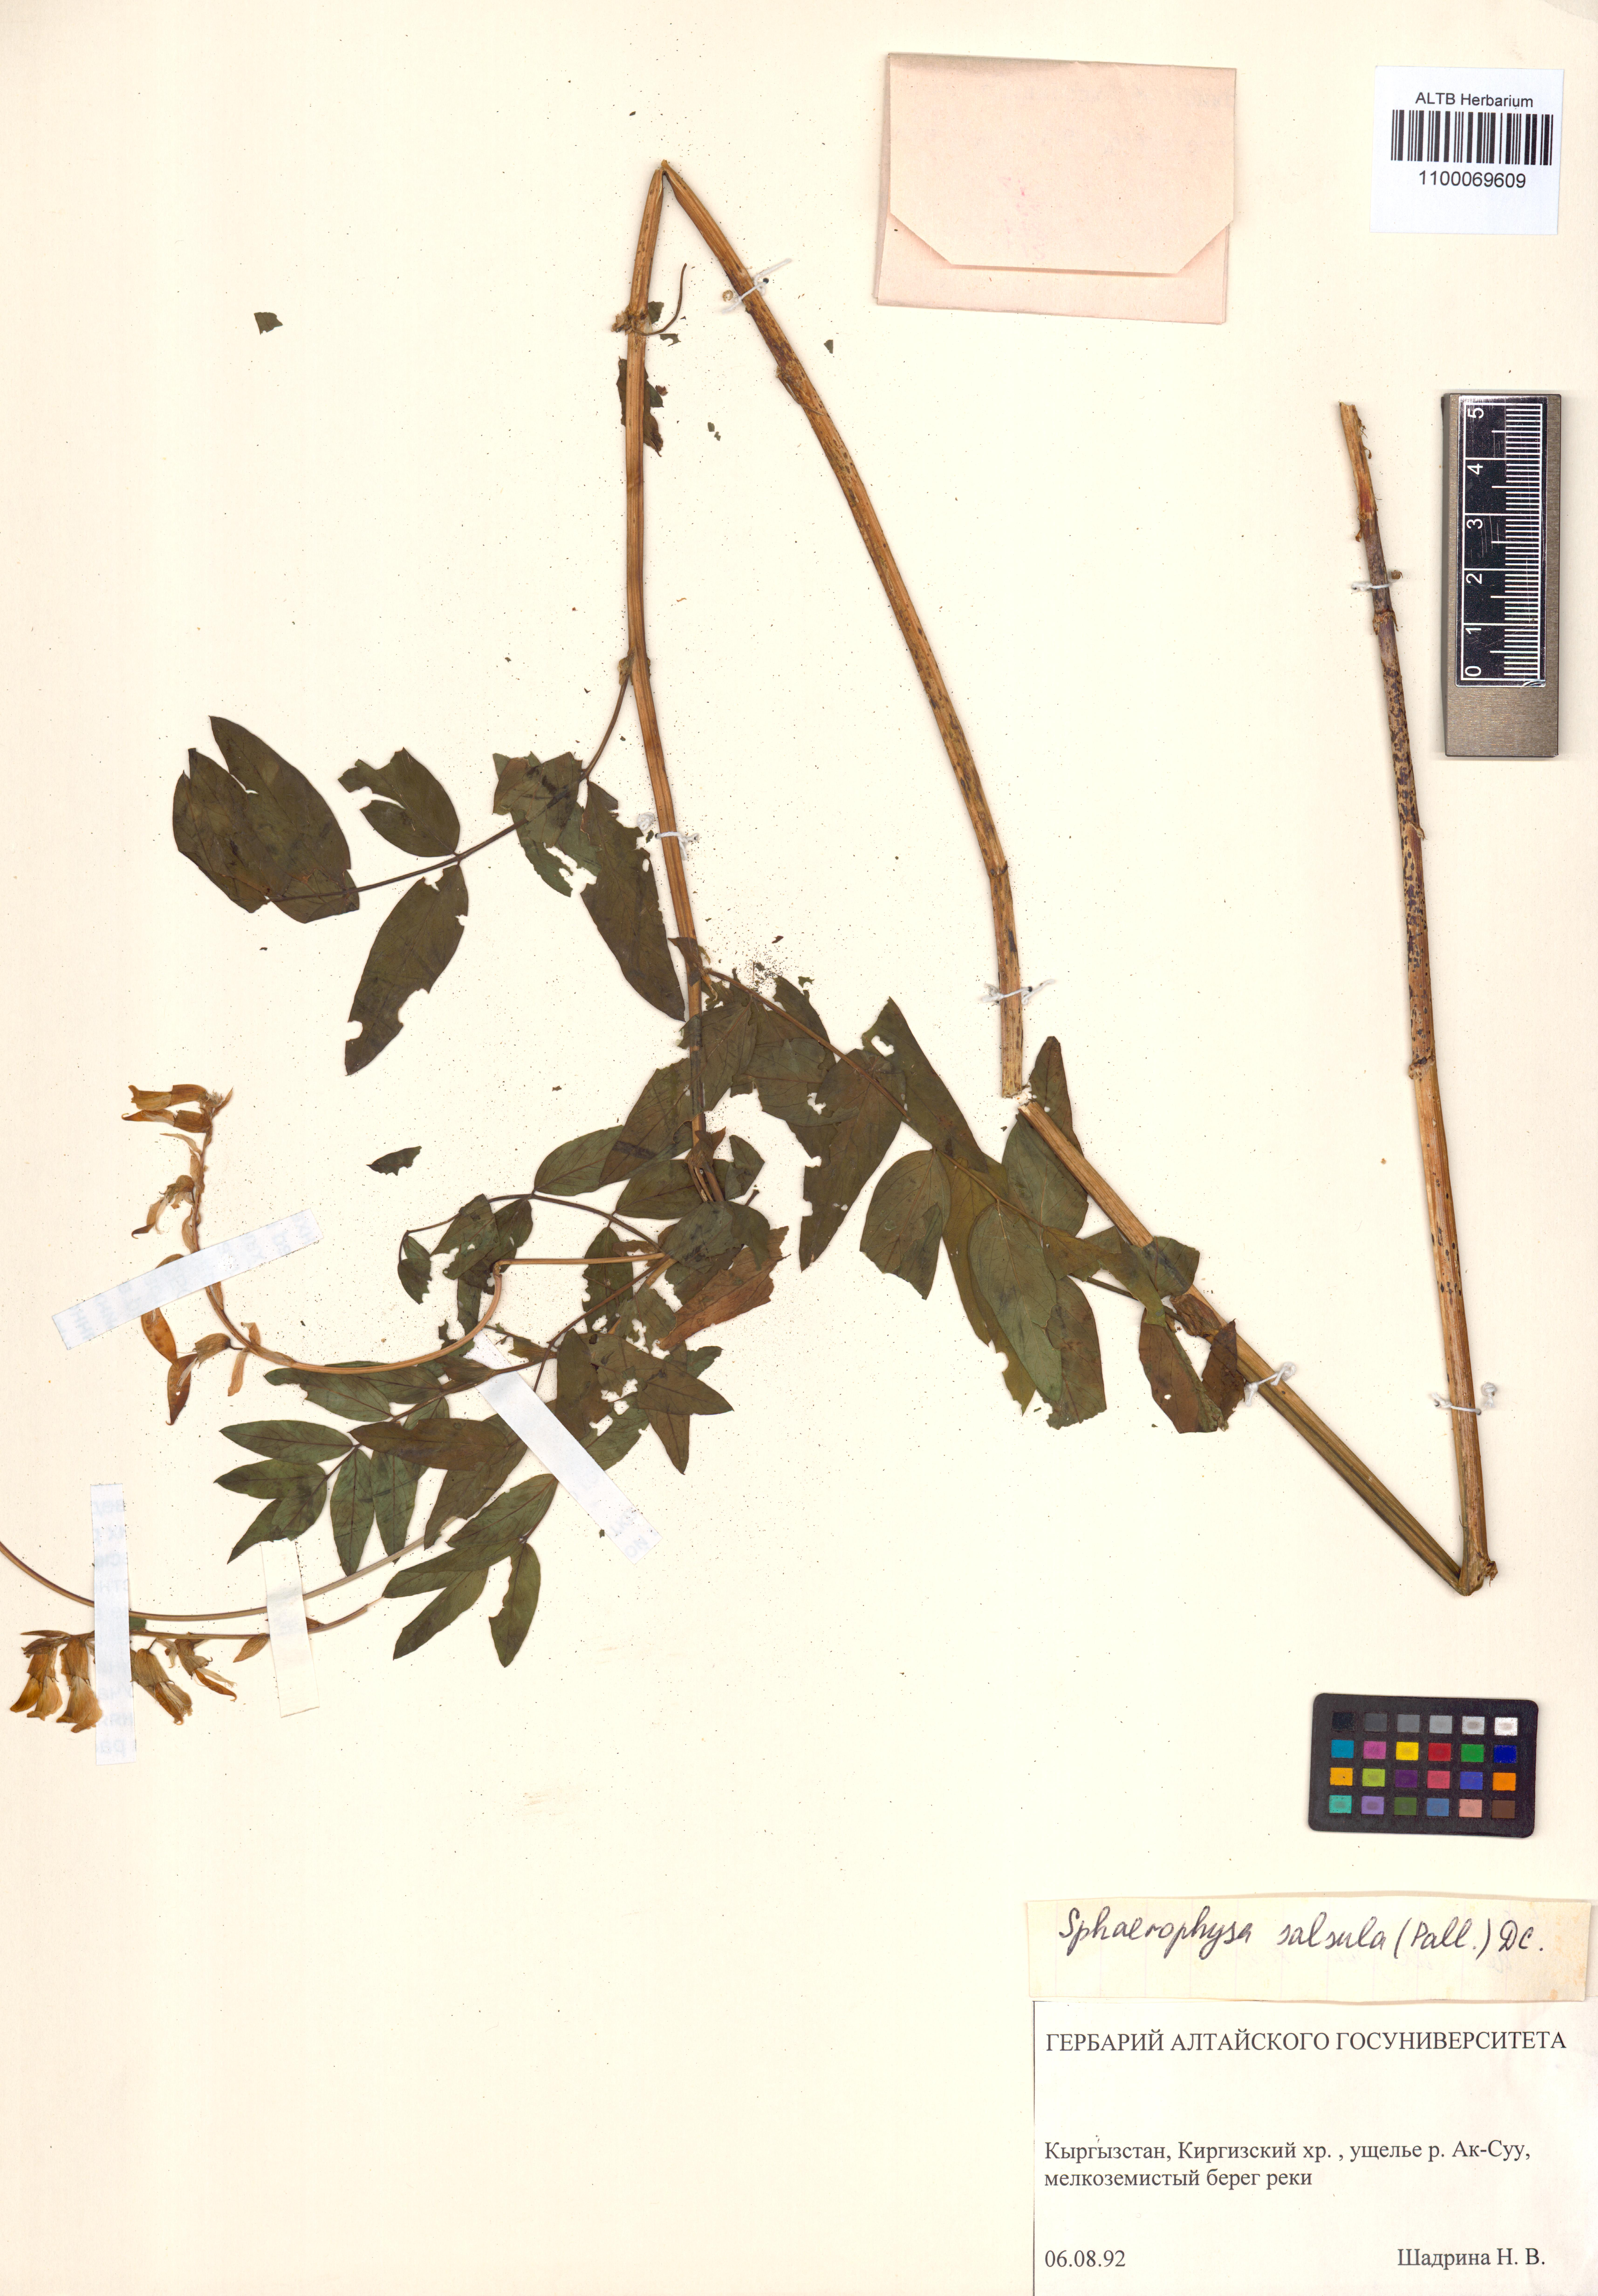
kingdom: Plantae
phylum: Tracheophyta
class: Magnoliopsida
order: Fabales
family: Fabaceae
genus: Sphaerophysa
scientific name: Sphaerophysa salsula
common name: Alkali swainsonpea
